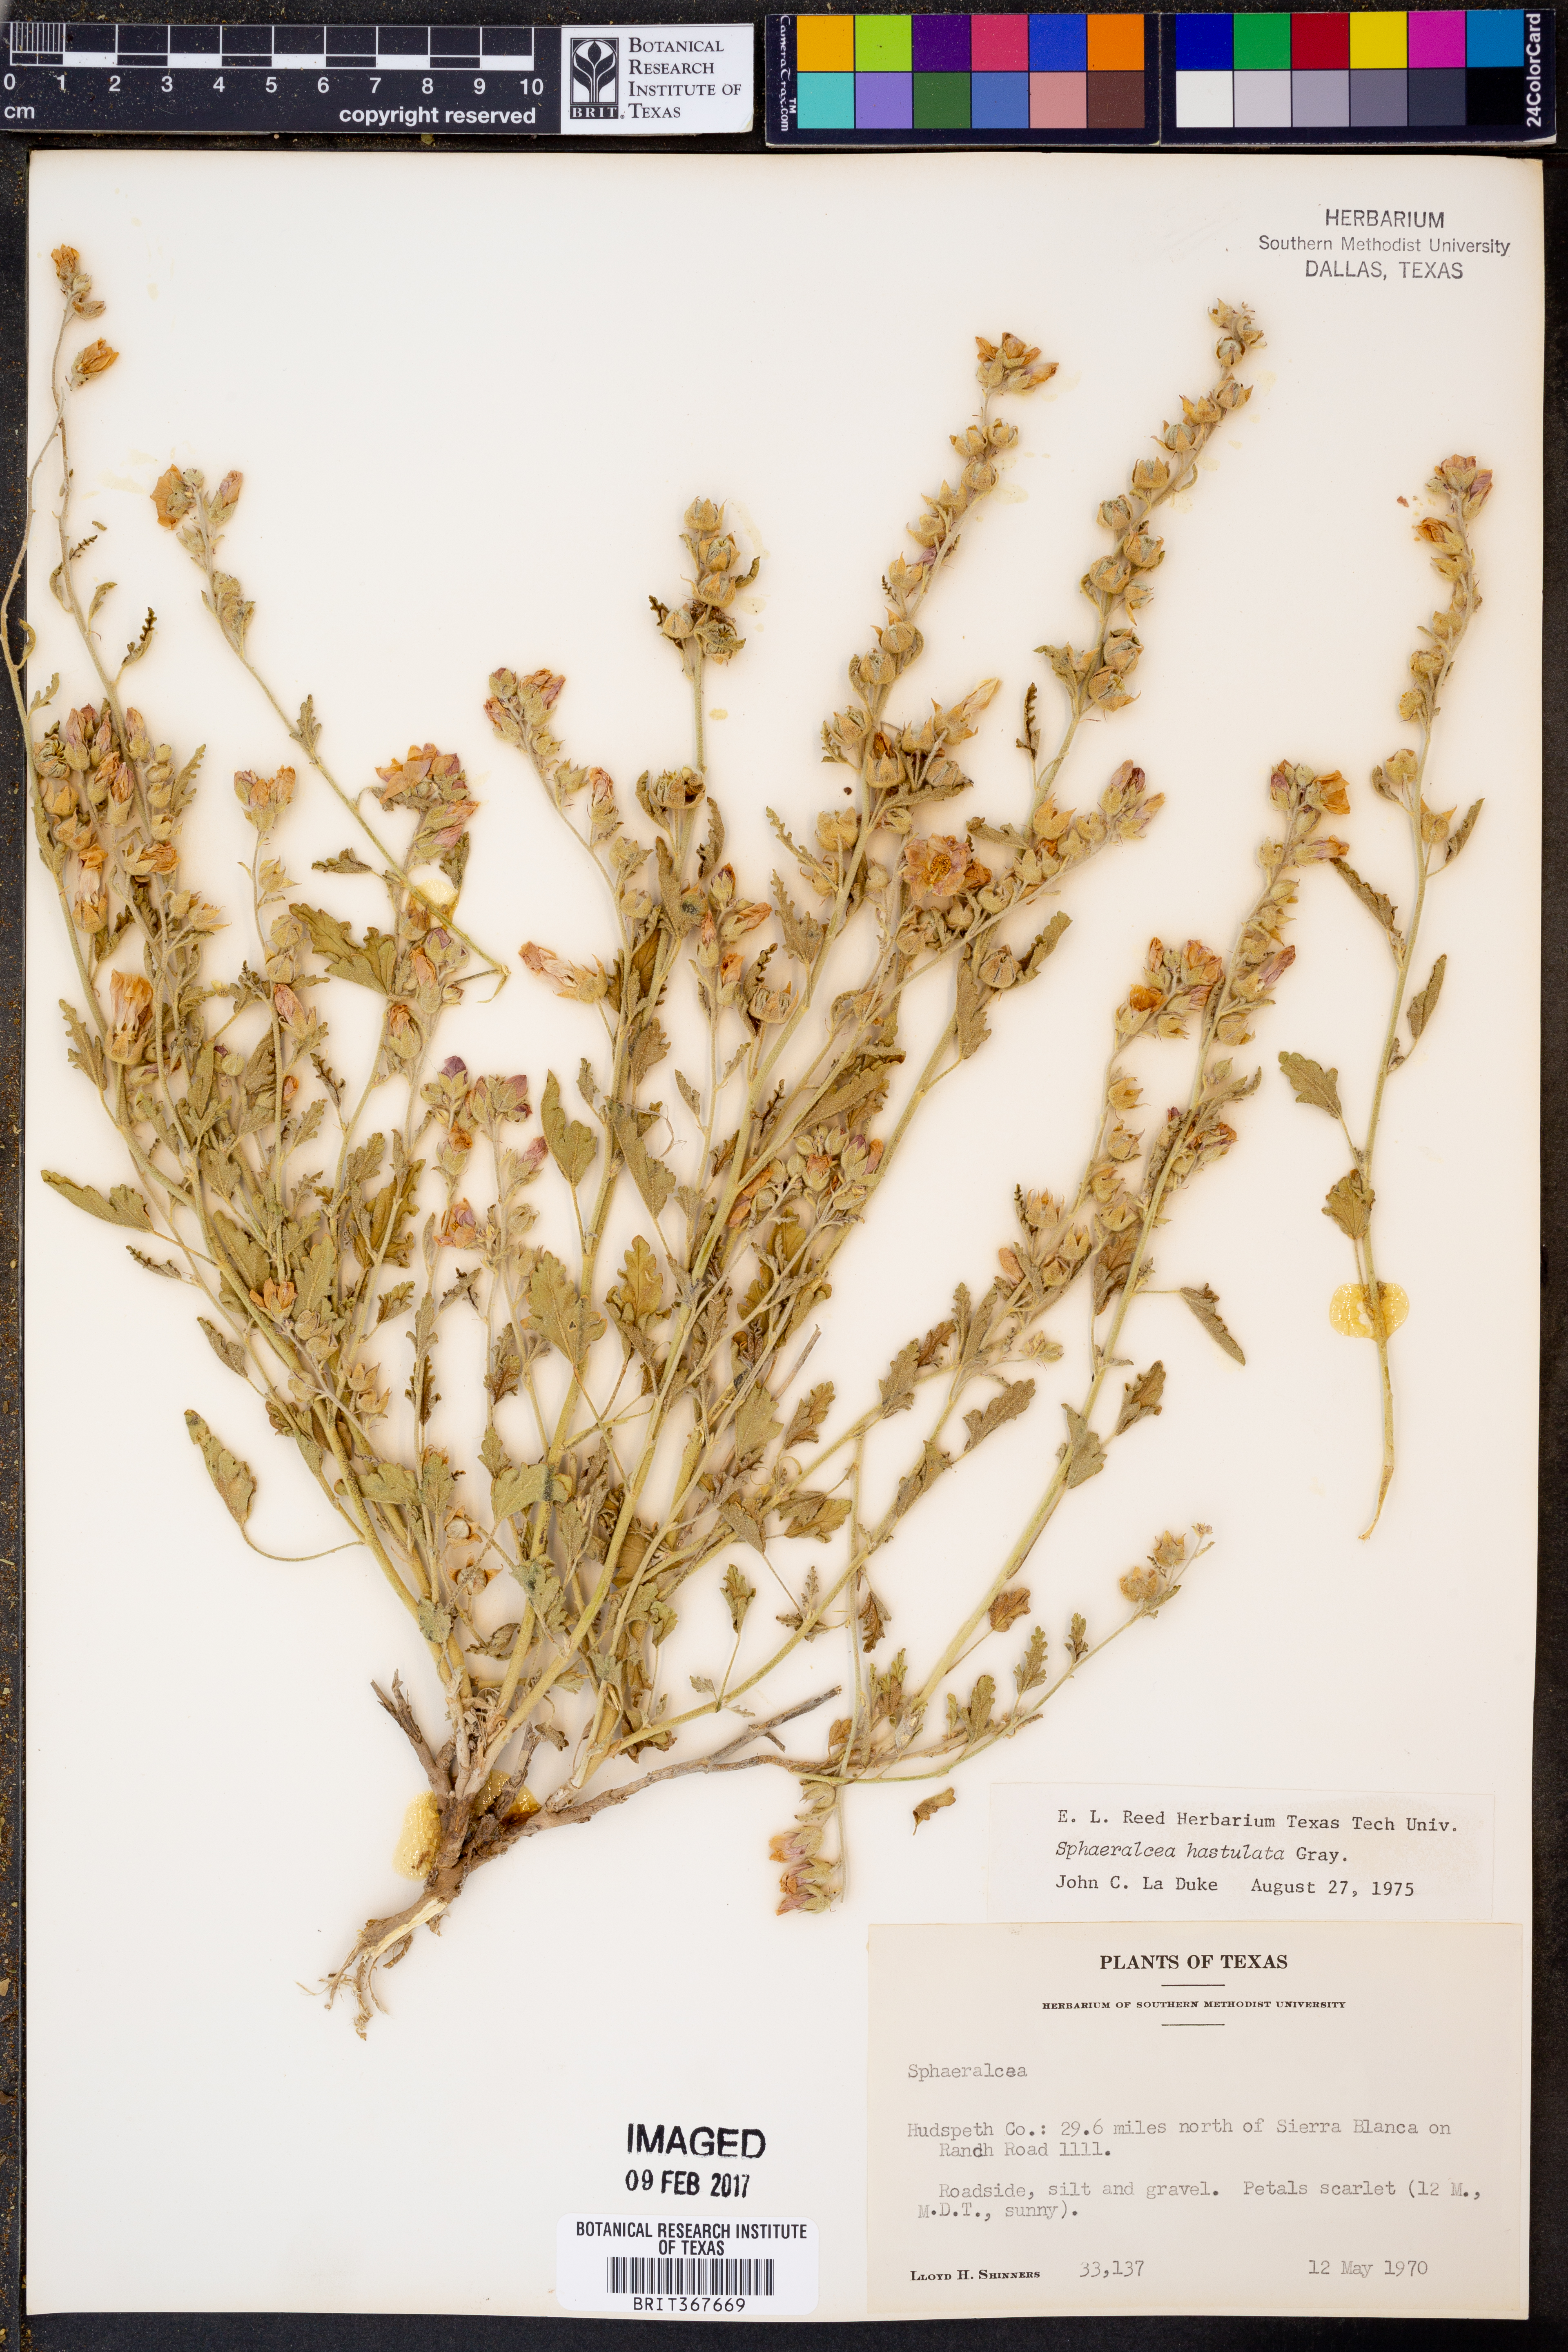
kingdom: Plantae
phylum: Tracheophyta
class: Magnoliopsida
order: Malvales
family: Malvaceae
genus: Sphaeralcea
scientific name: Sphaeralcea hastulata
